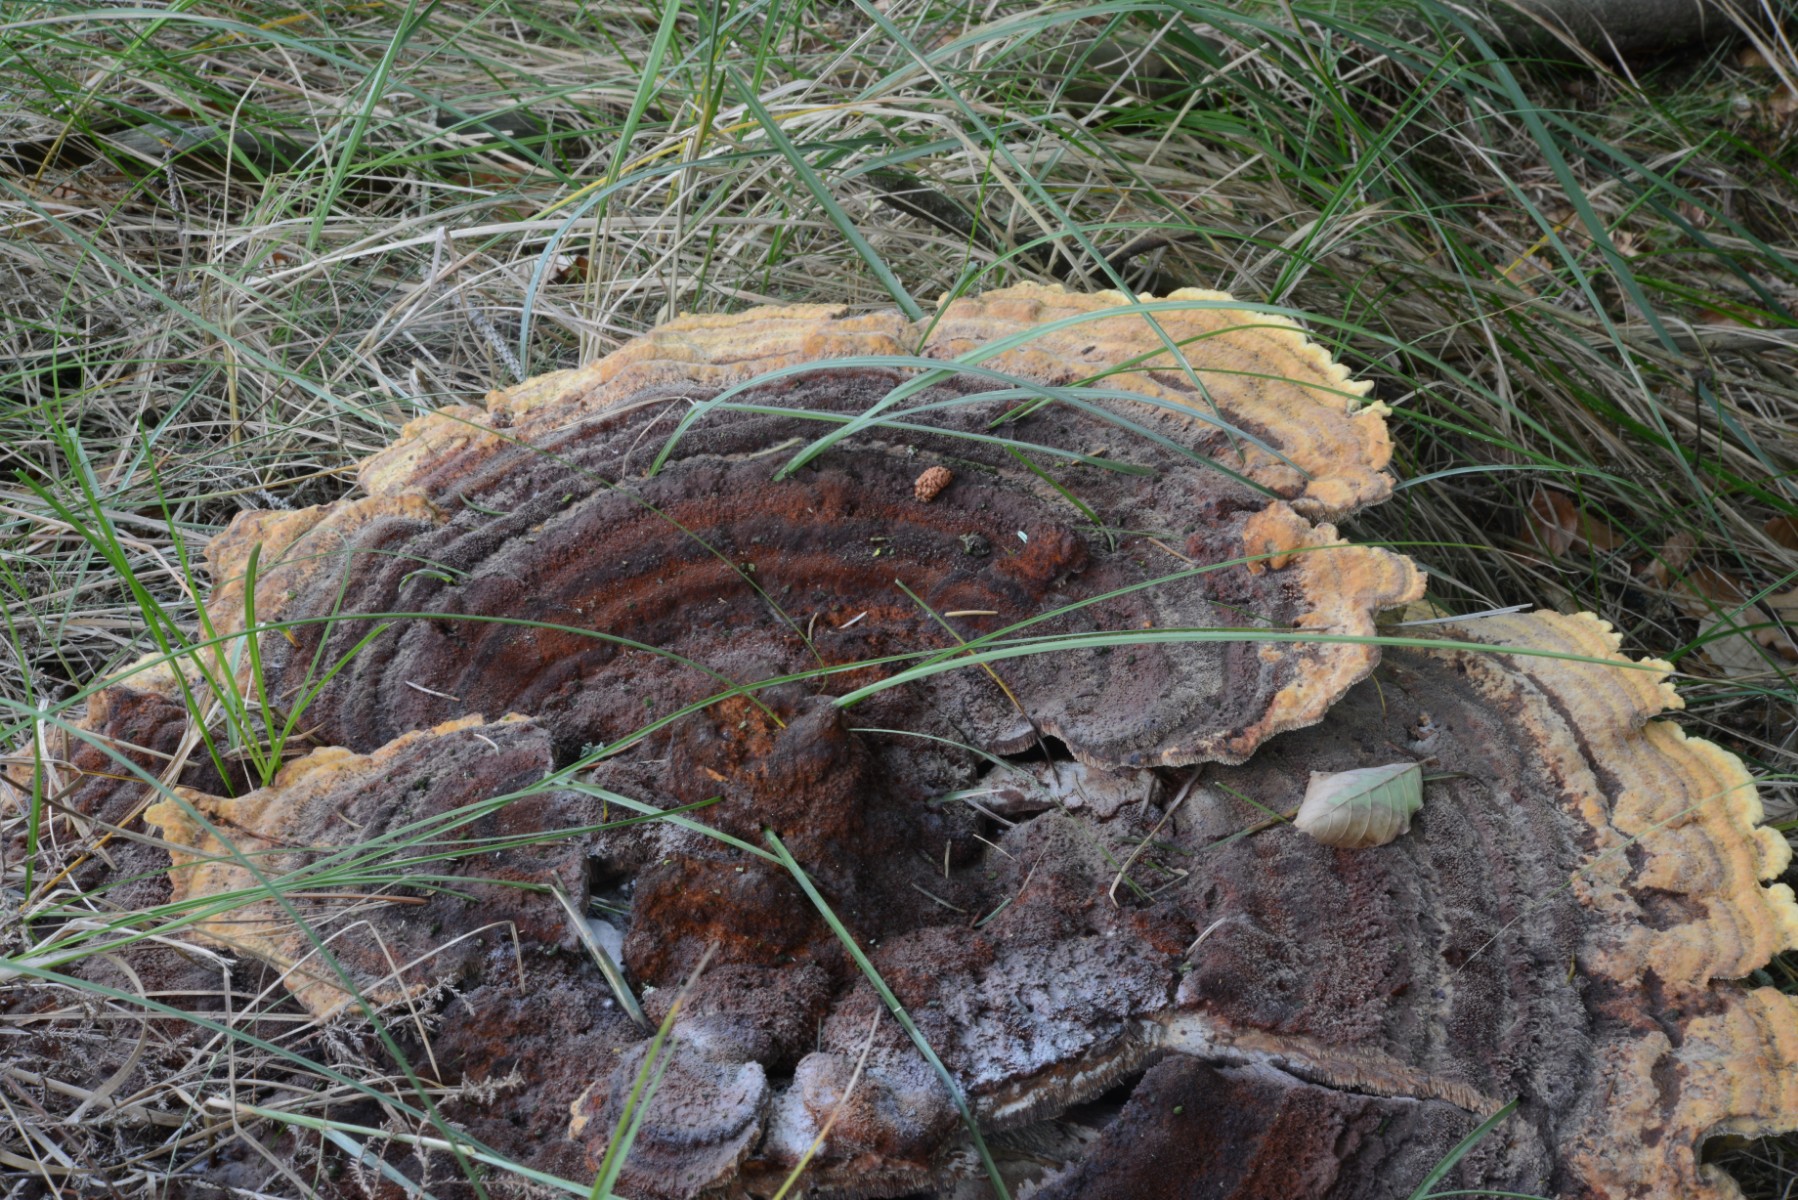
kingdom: Fungi
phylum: Basidiomycota
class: Agaricomycetes
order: Polyporales
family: Laetiporaceae
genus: Phaeolus
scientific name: Phaeolus schweinitzii
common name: brunporesvamp
